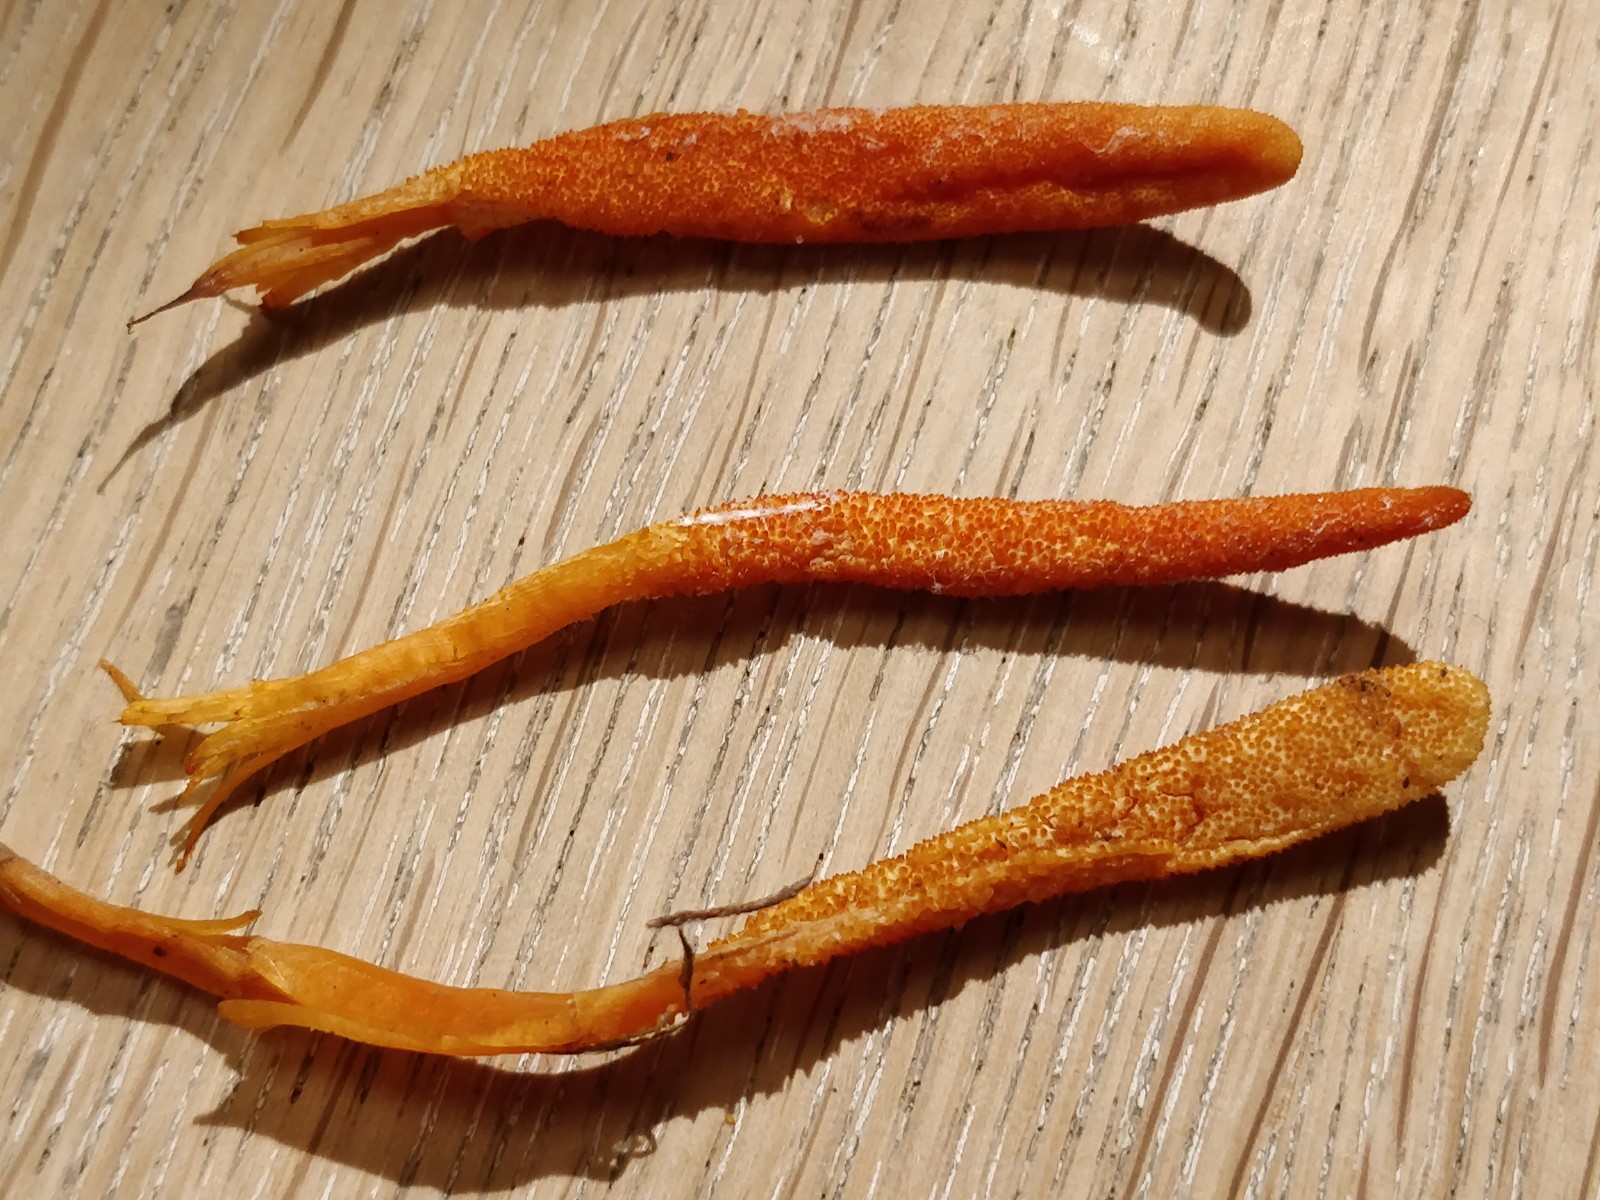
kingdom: Fungi
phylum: Ascomycota
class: Sordariomycetes
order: Hypocreales
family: Cordycipitaceae
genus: Cordyceps
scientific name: Cordyceps militaris
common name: puppe-snyltekølle
